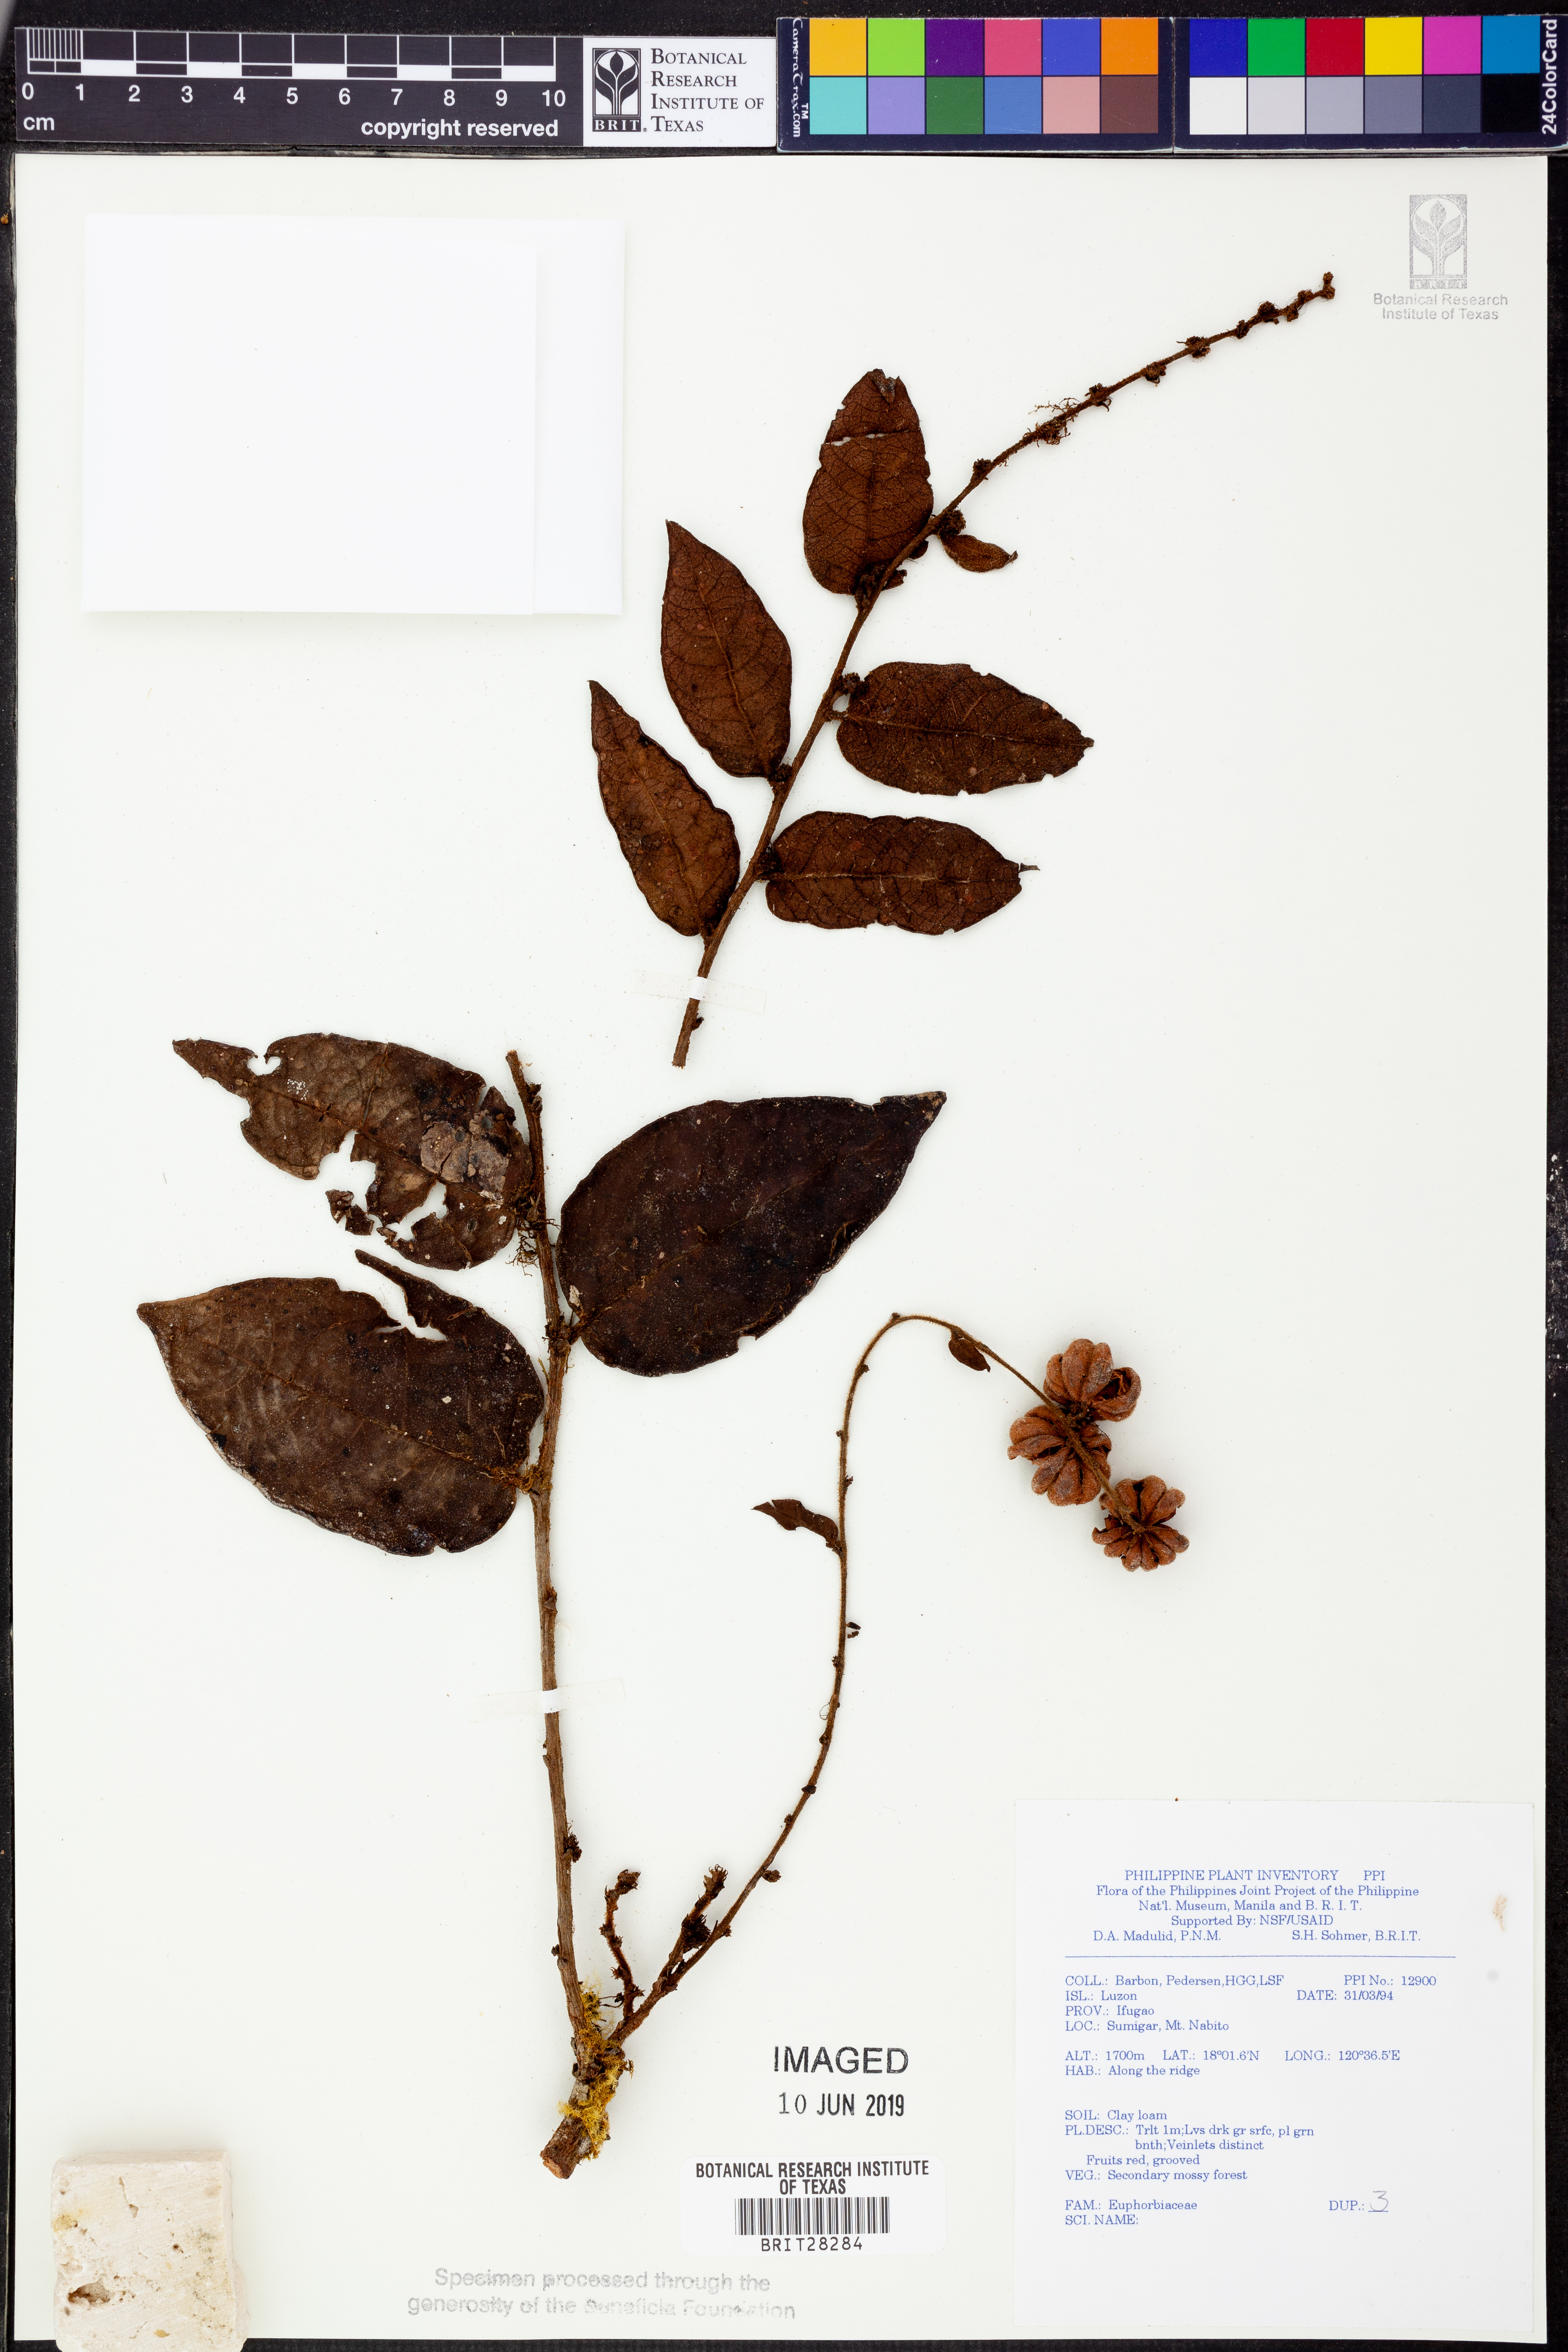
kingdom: Plantae
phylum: Tracheophyta
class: Magnoliopsida
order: Malpighiales
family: Euphorbiaceae
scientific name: Euphorbiaceae
